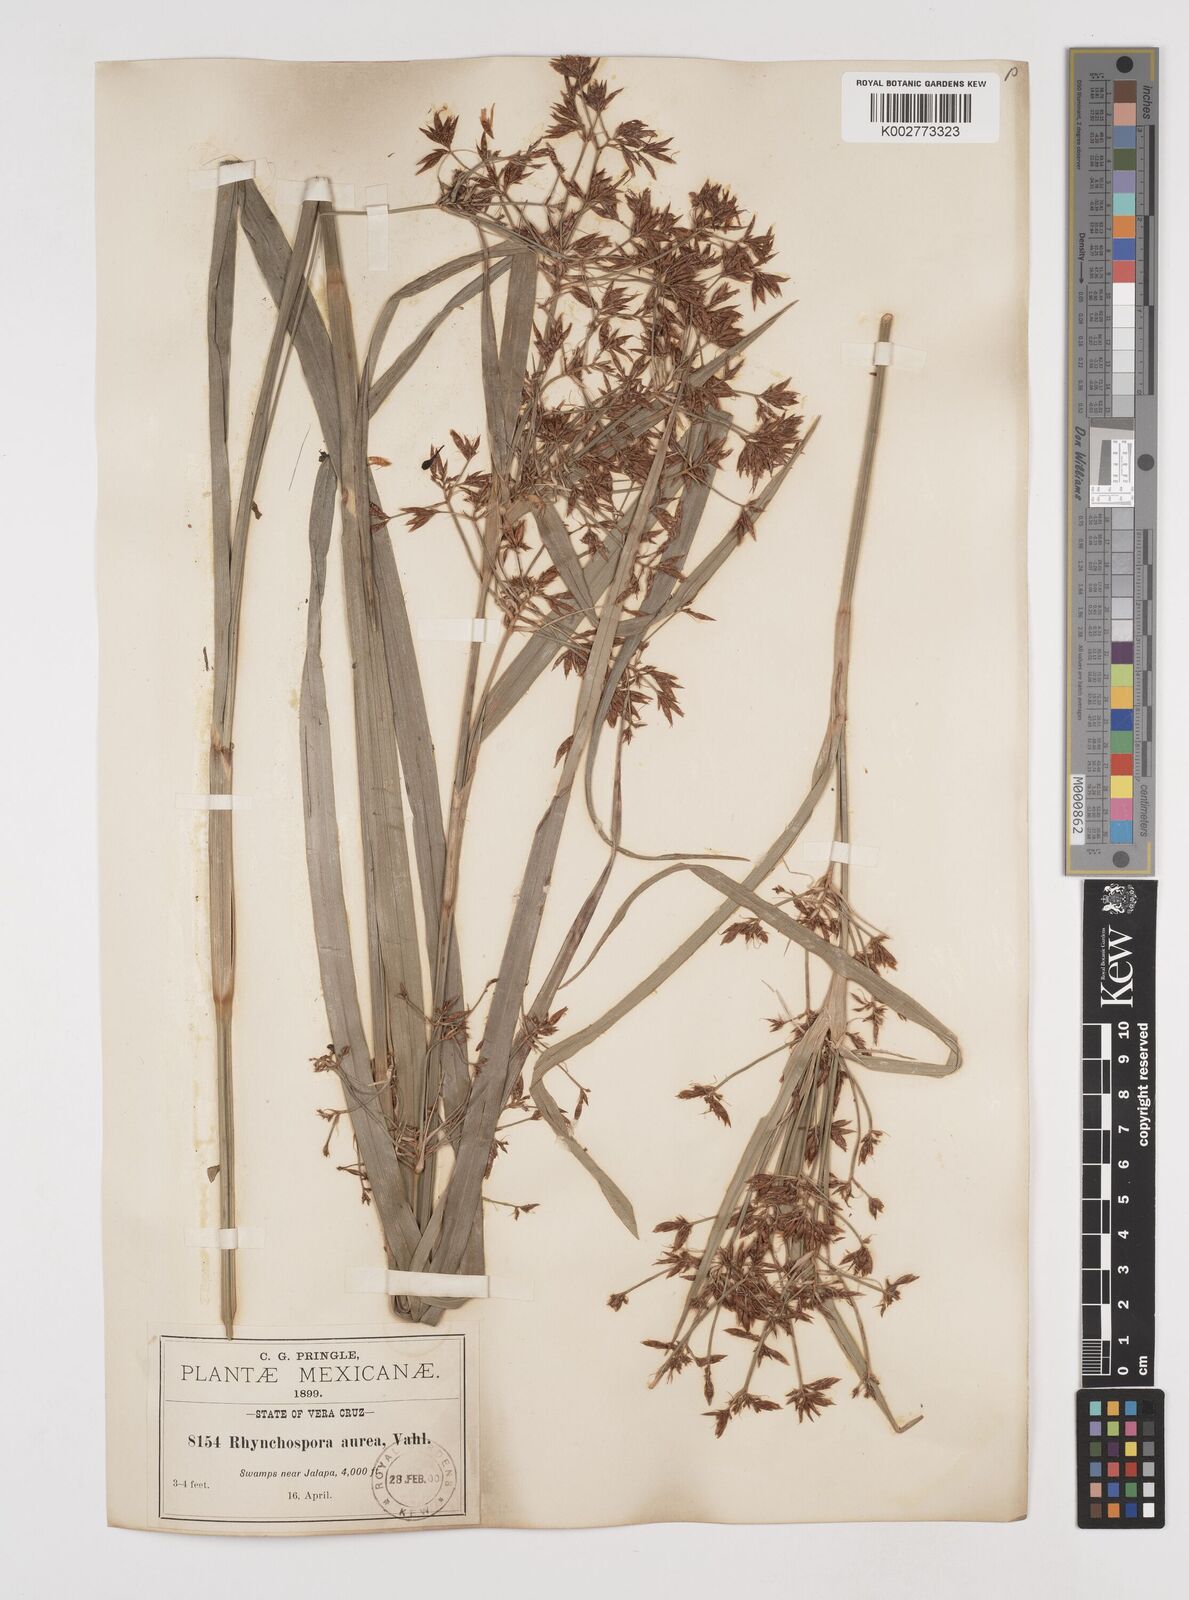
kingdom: Plantae
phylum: Tracheophyta
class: Liliopsida
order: Poales
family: Cyperaceae
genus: Rhynchospora
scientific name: Rhynchospora corymbosa
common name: Golden beak sedge
